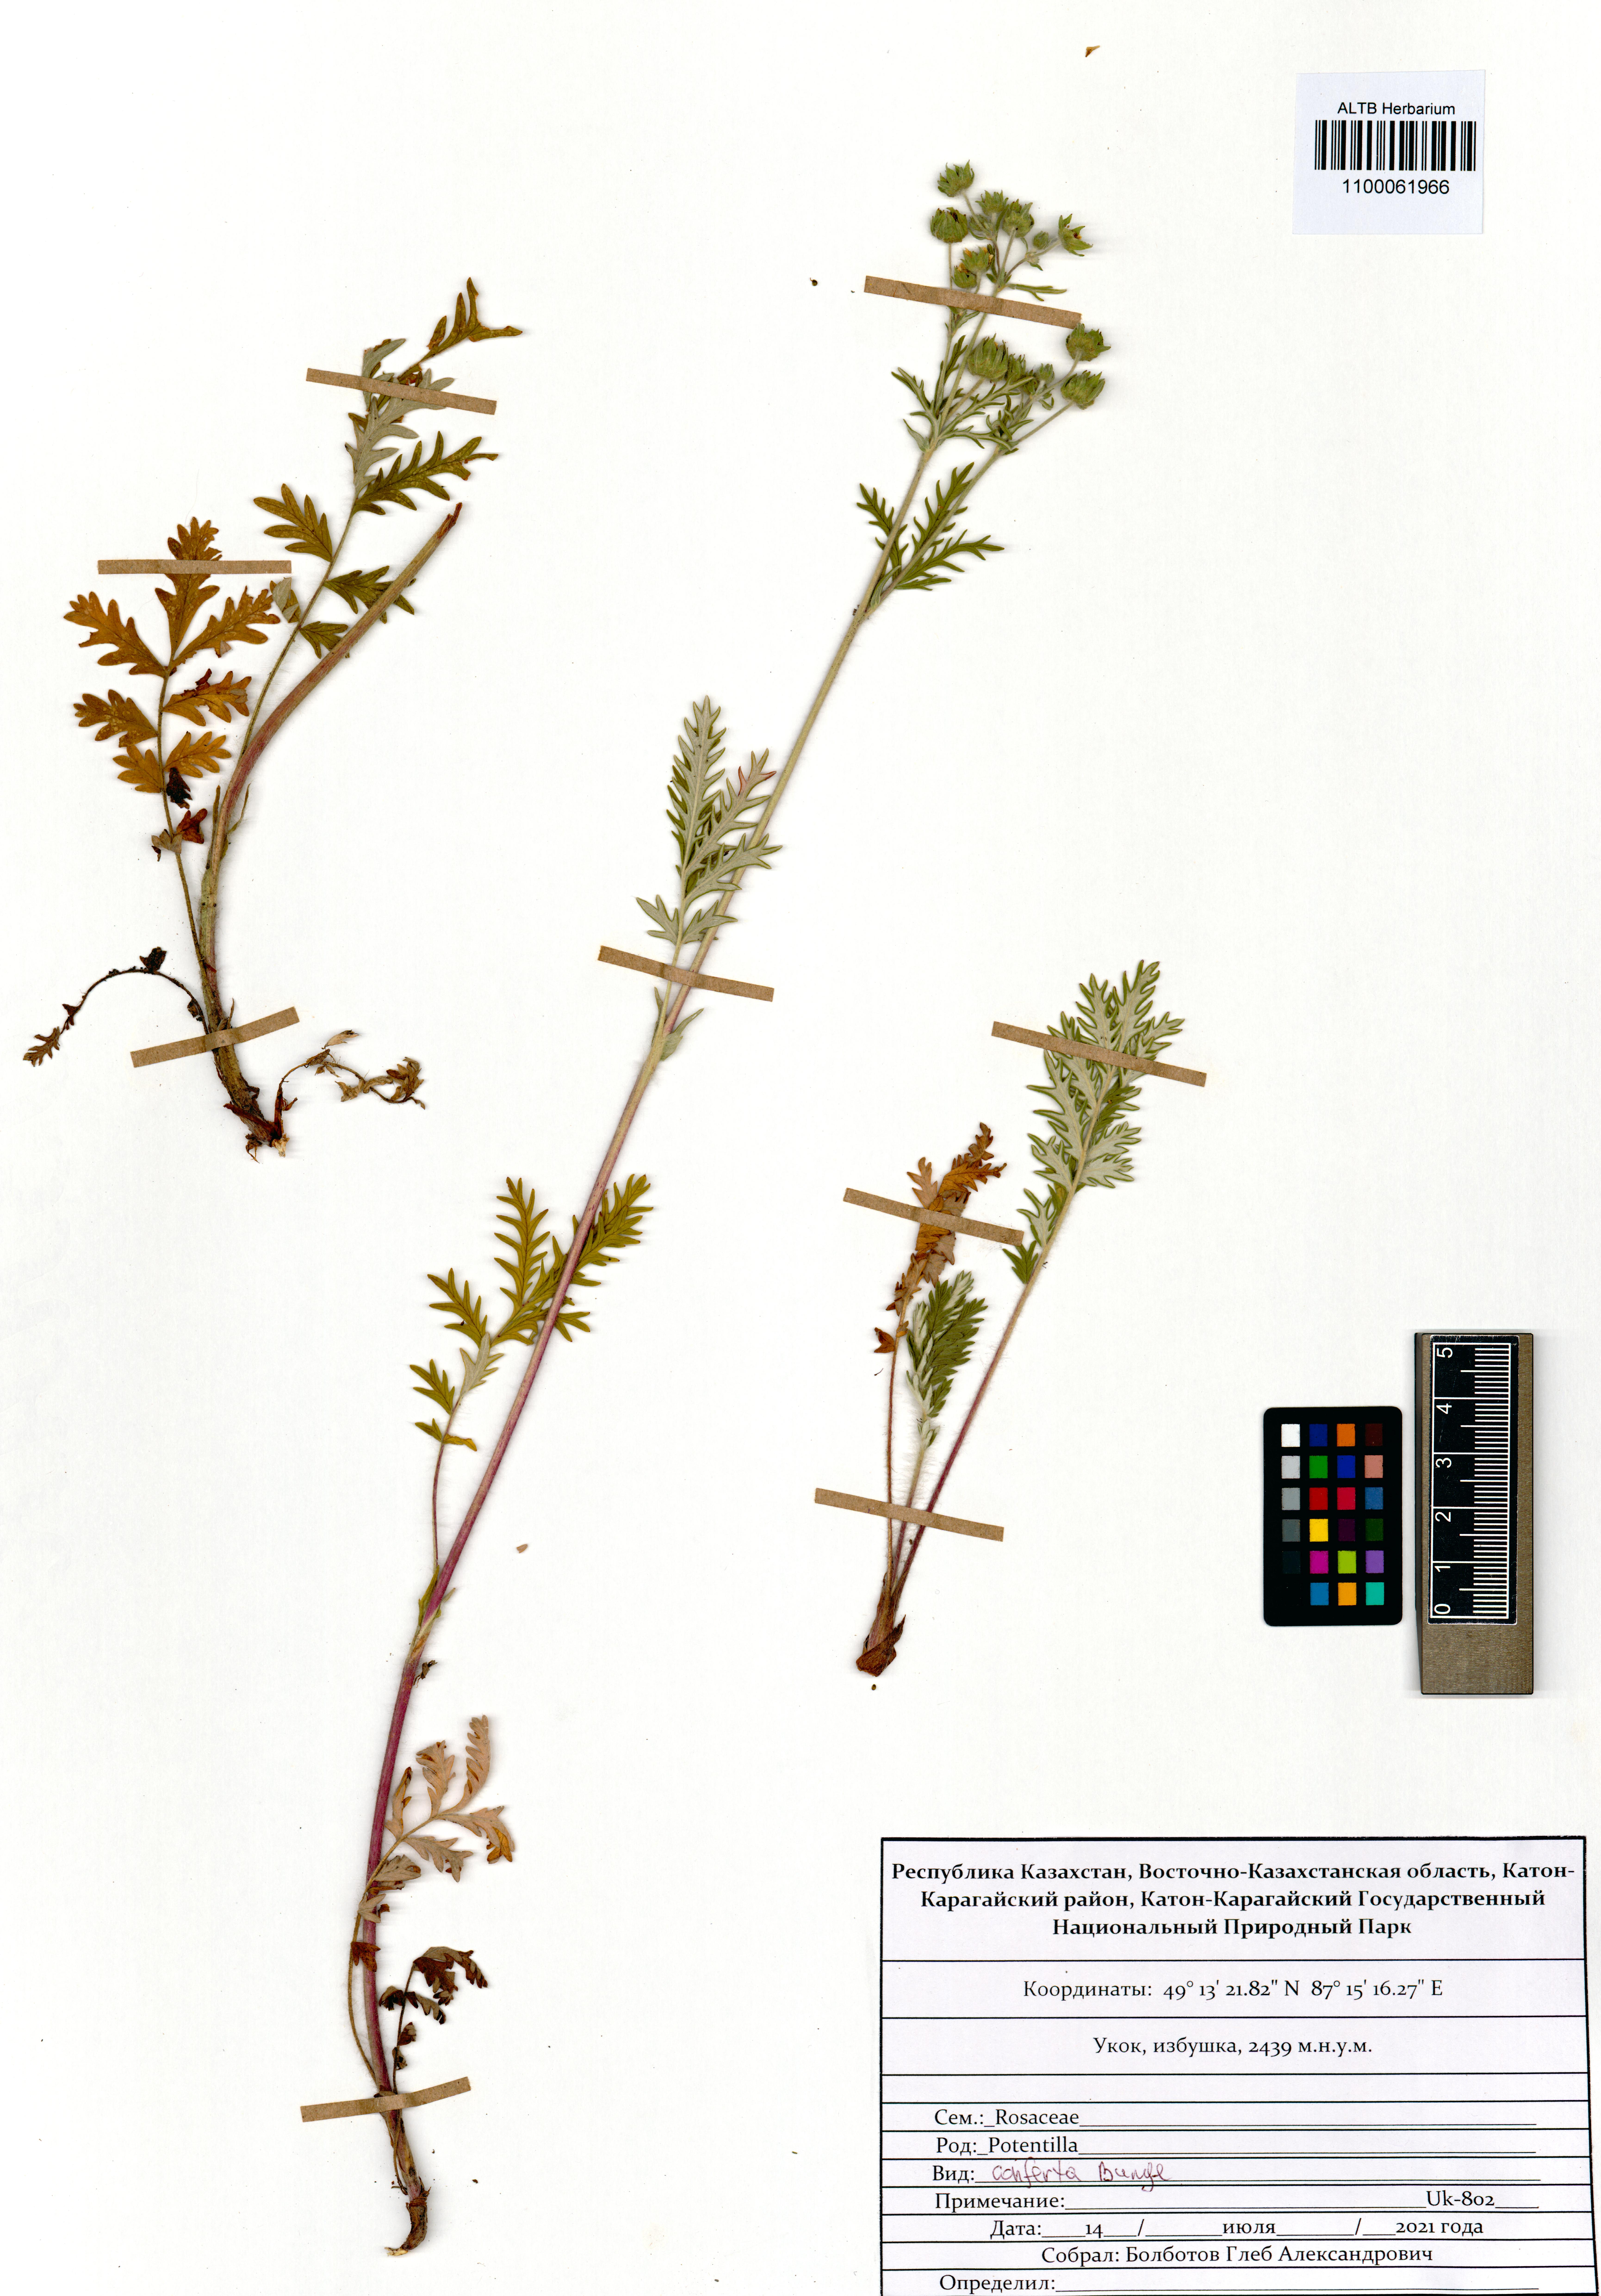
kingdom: Plantae
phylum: Tracheophyta
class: Magnoliopsida
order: Rosales
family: Rosaceae
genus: Potentilla
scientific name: Potentilla conferta
